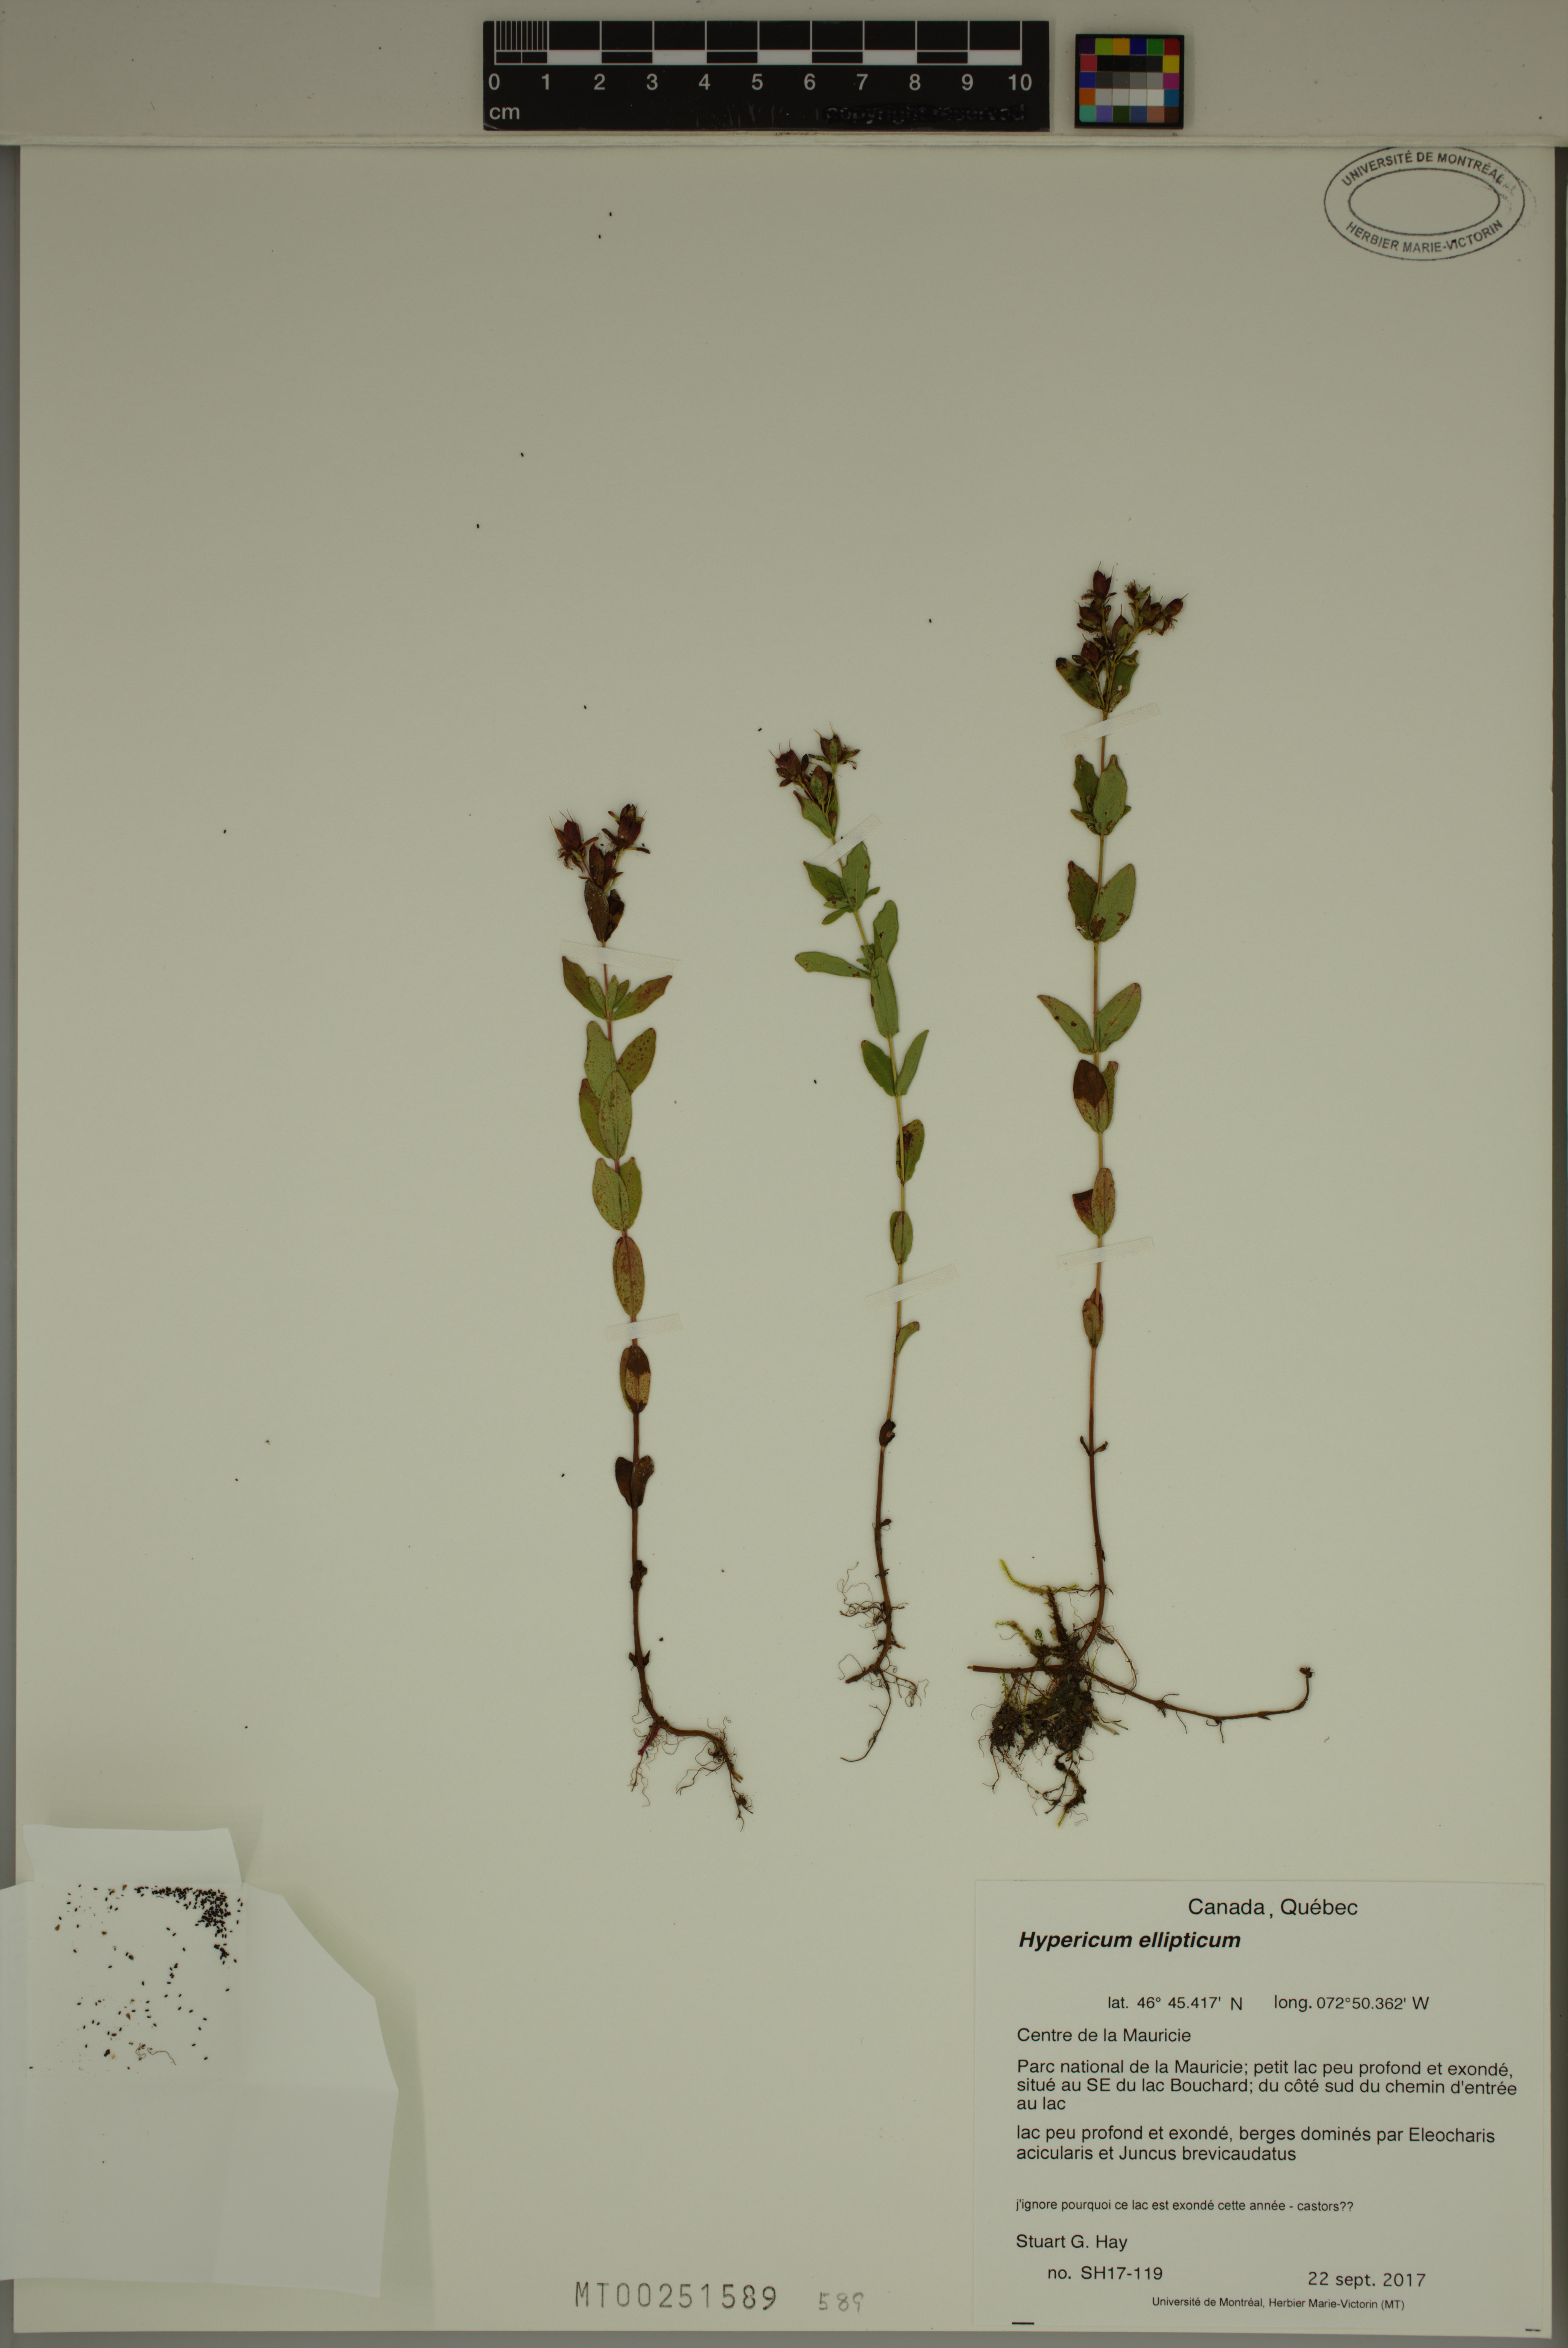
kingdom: Plantae
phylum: Tracheophyta
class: Magnoliopsida
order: Malpighiales
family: Hypericaceae
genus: Hypericum
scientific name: Hypericum ellipticum
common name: Elliptic st. john's-wort
